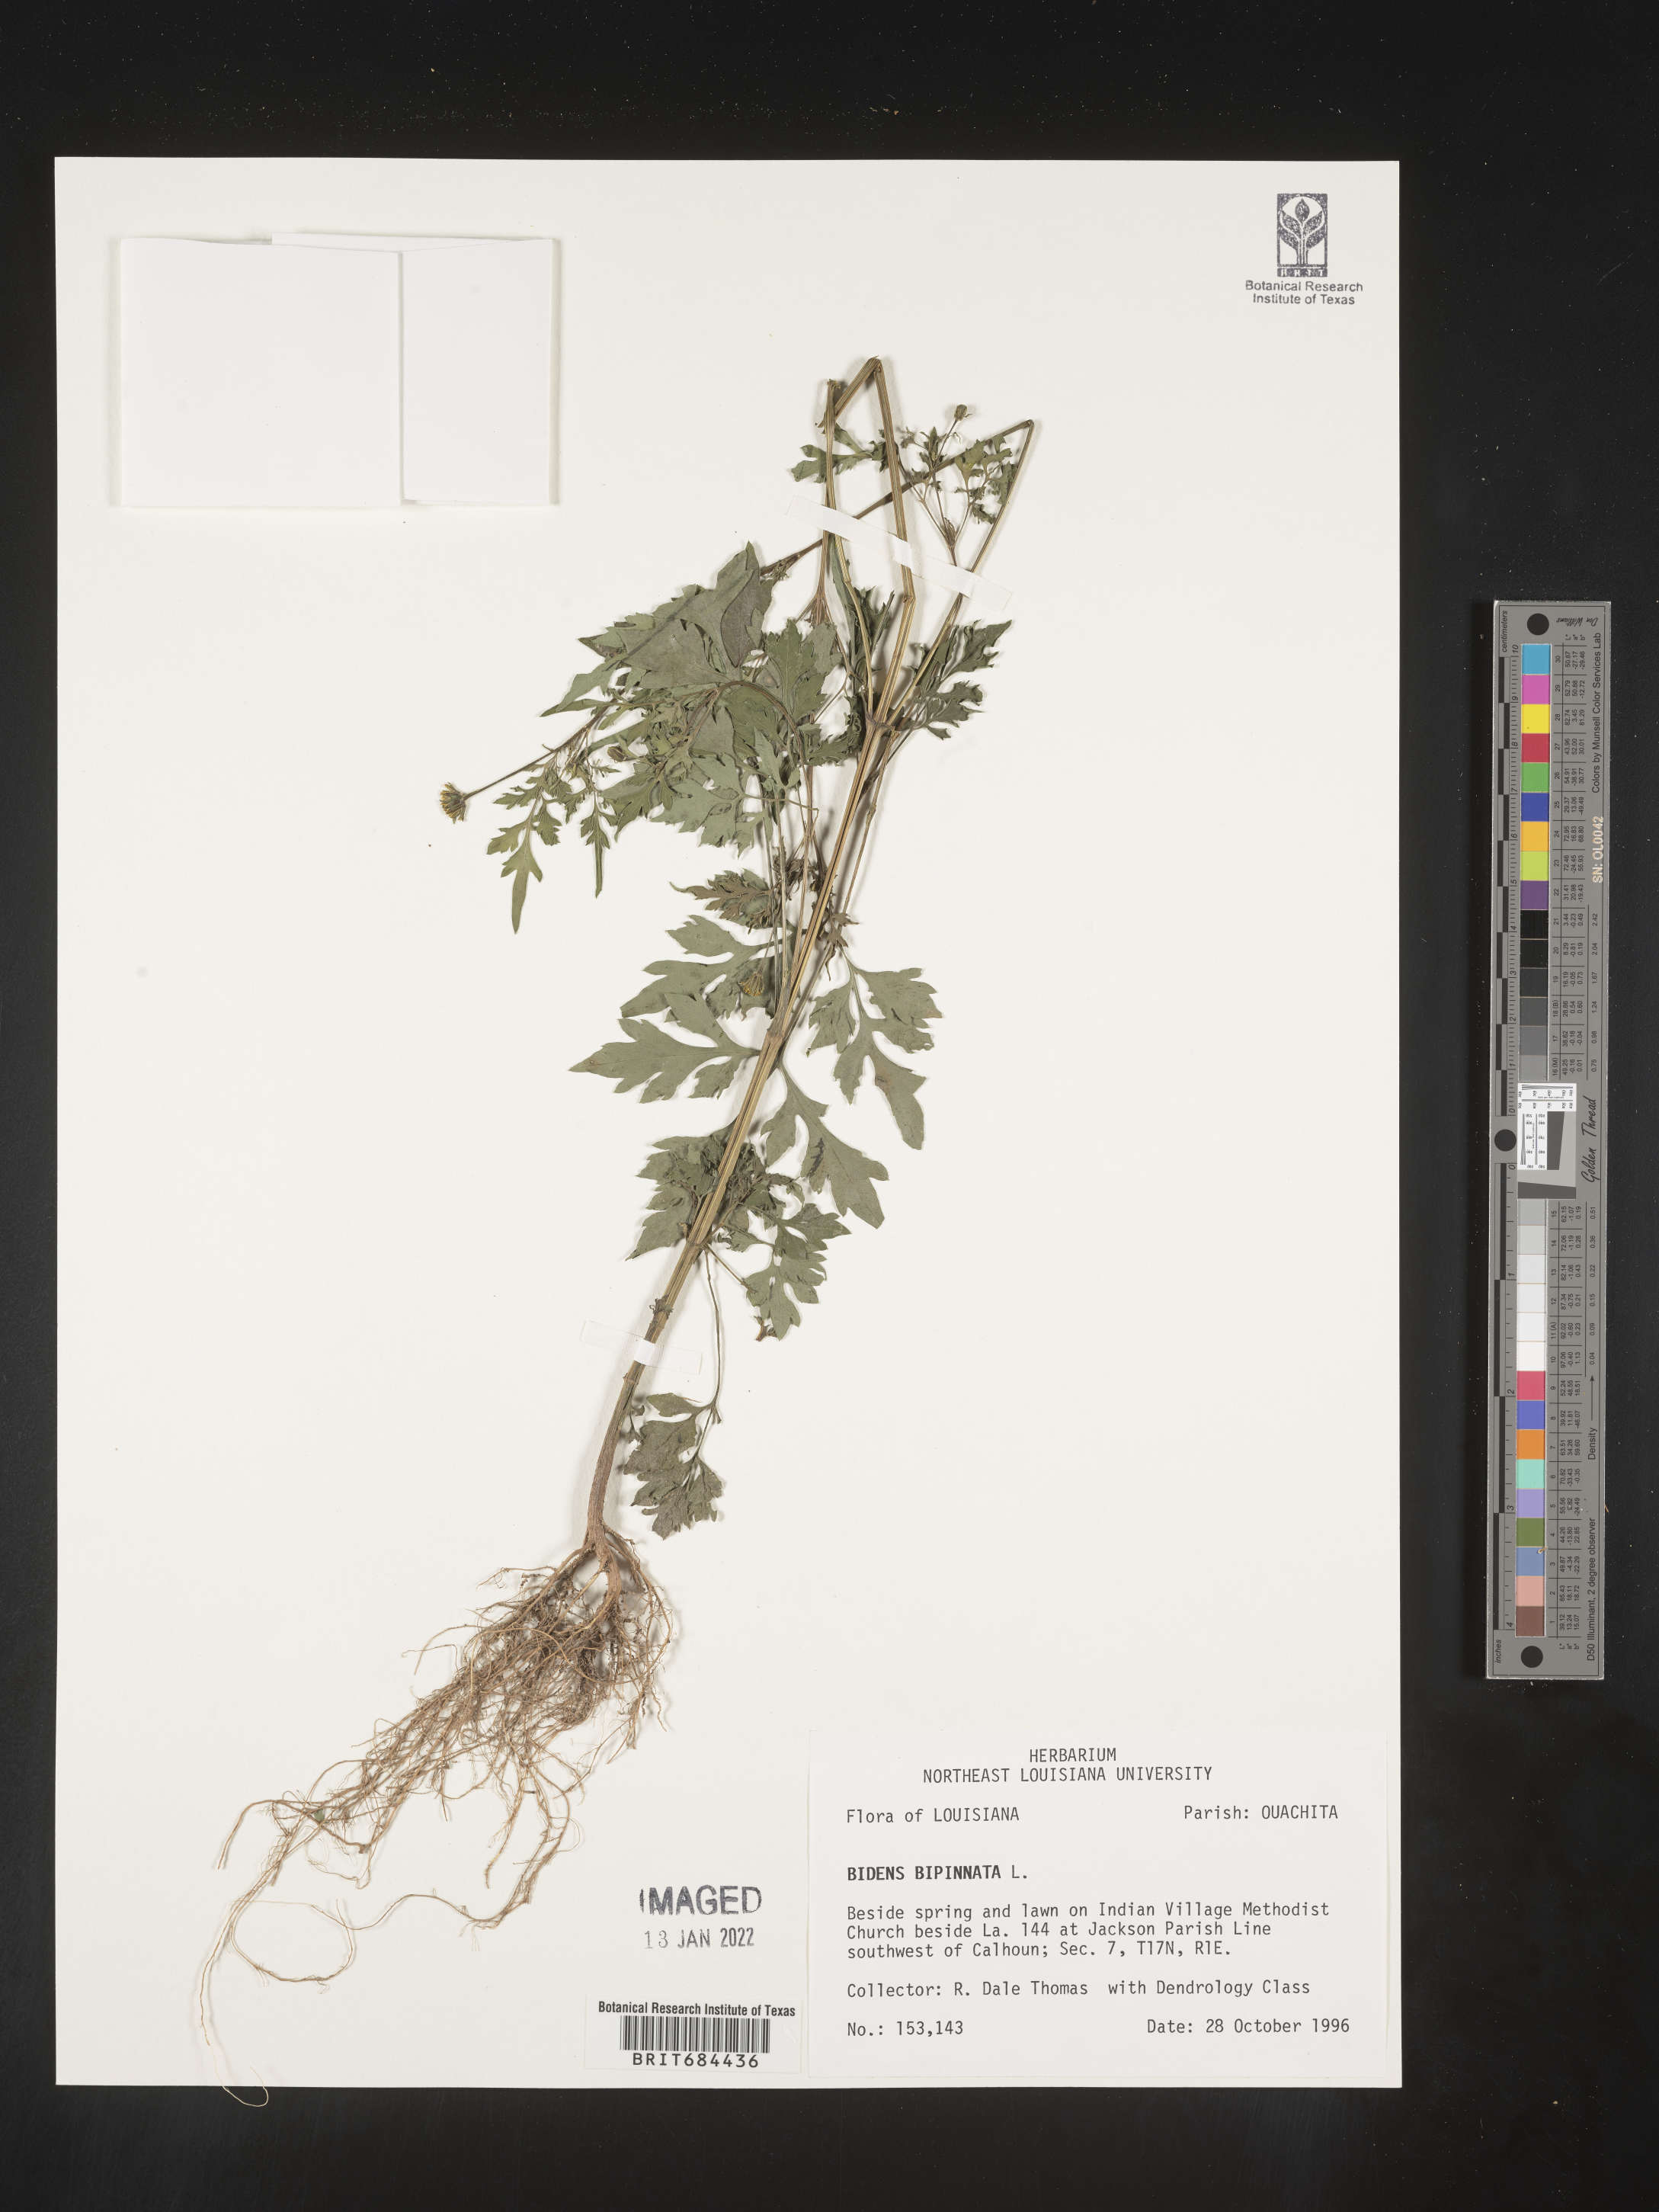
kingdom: Plantae
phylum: Tracheophyta
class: Magnoliopsida
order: Asterales
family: Asteraceae
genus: Bidens
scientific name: Bidens bipinnata
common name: Spanish-needles
